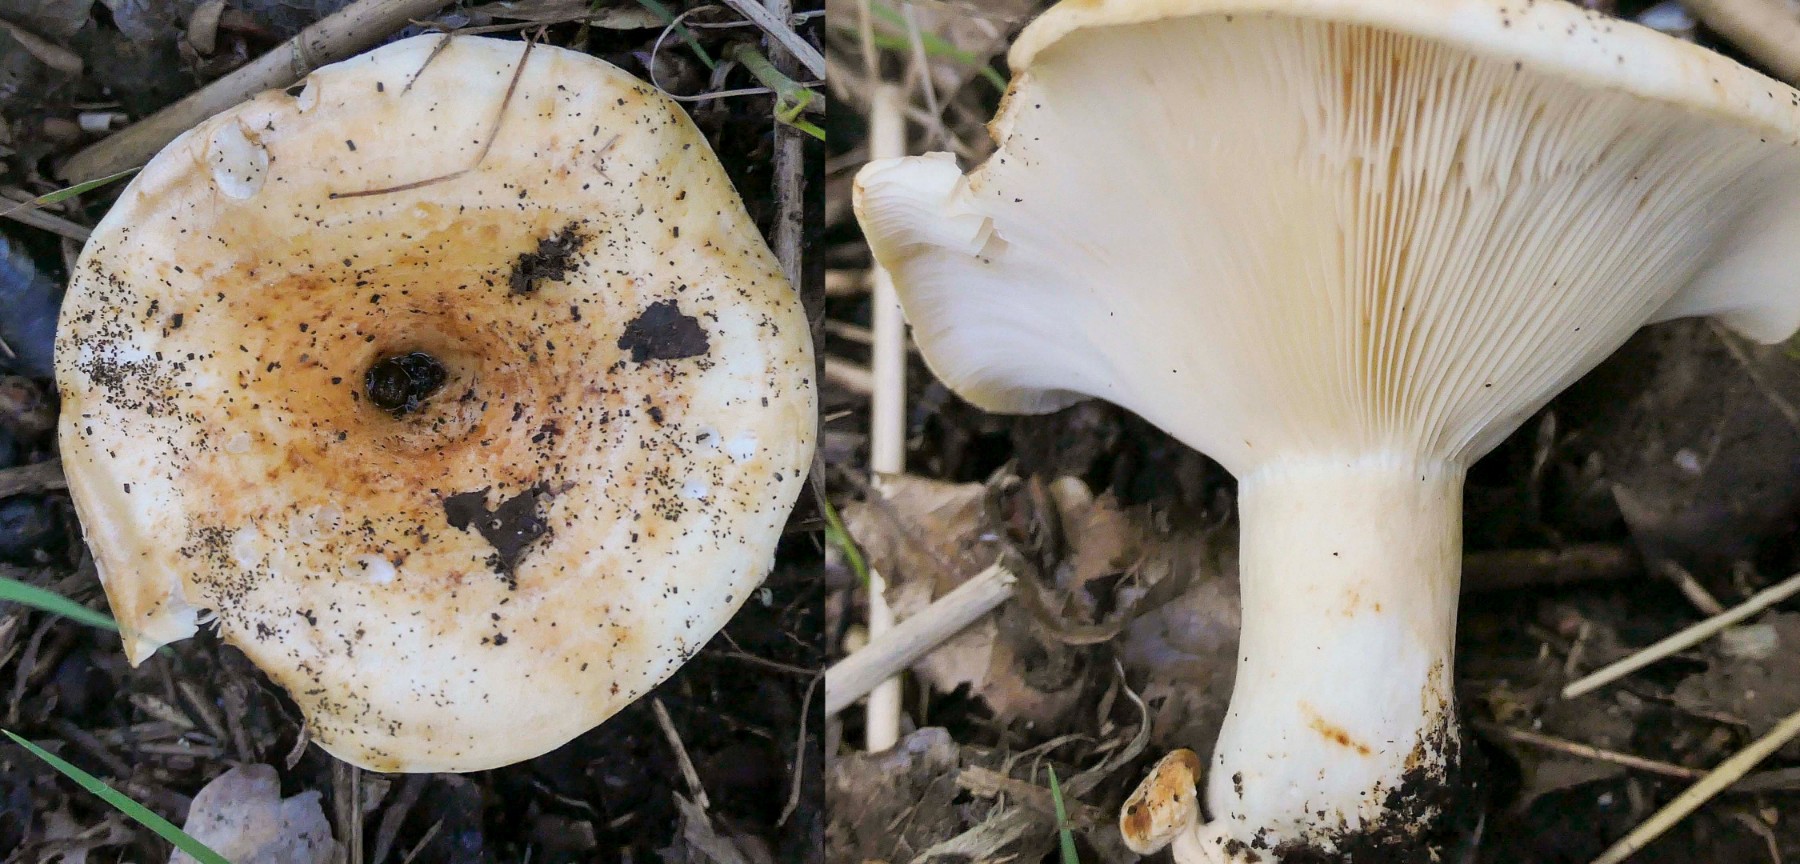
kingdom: Fungi
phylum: Basidiomycota
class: Agaricomycetes
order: Russulales
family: Russulaceae
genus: Lactarius
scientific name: Lactarius evosmus
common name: bæltet mælkehat
